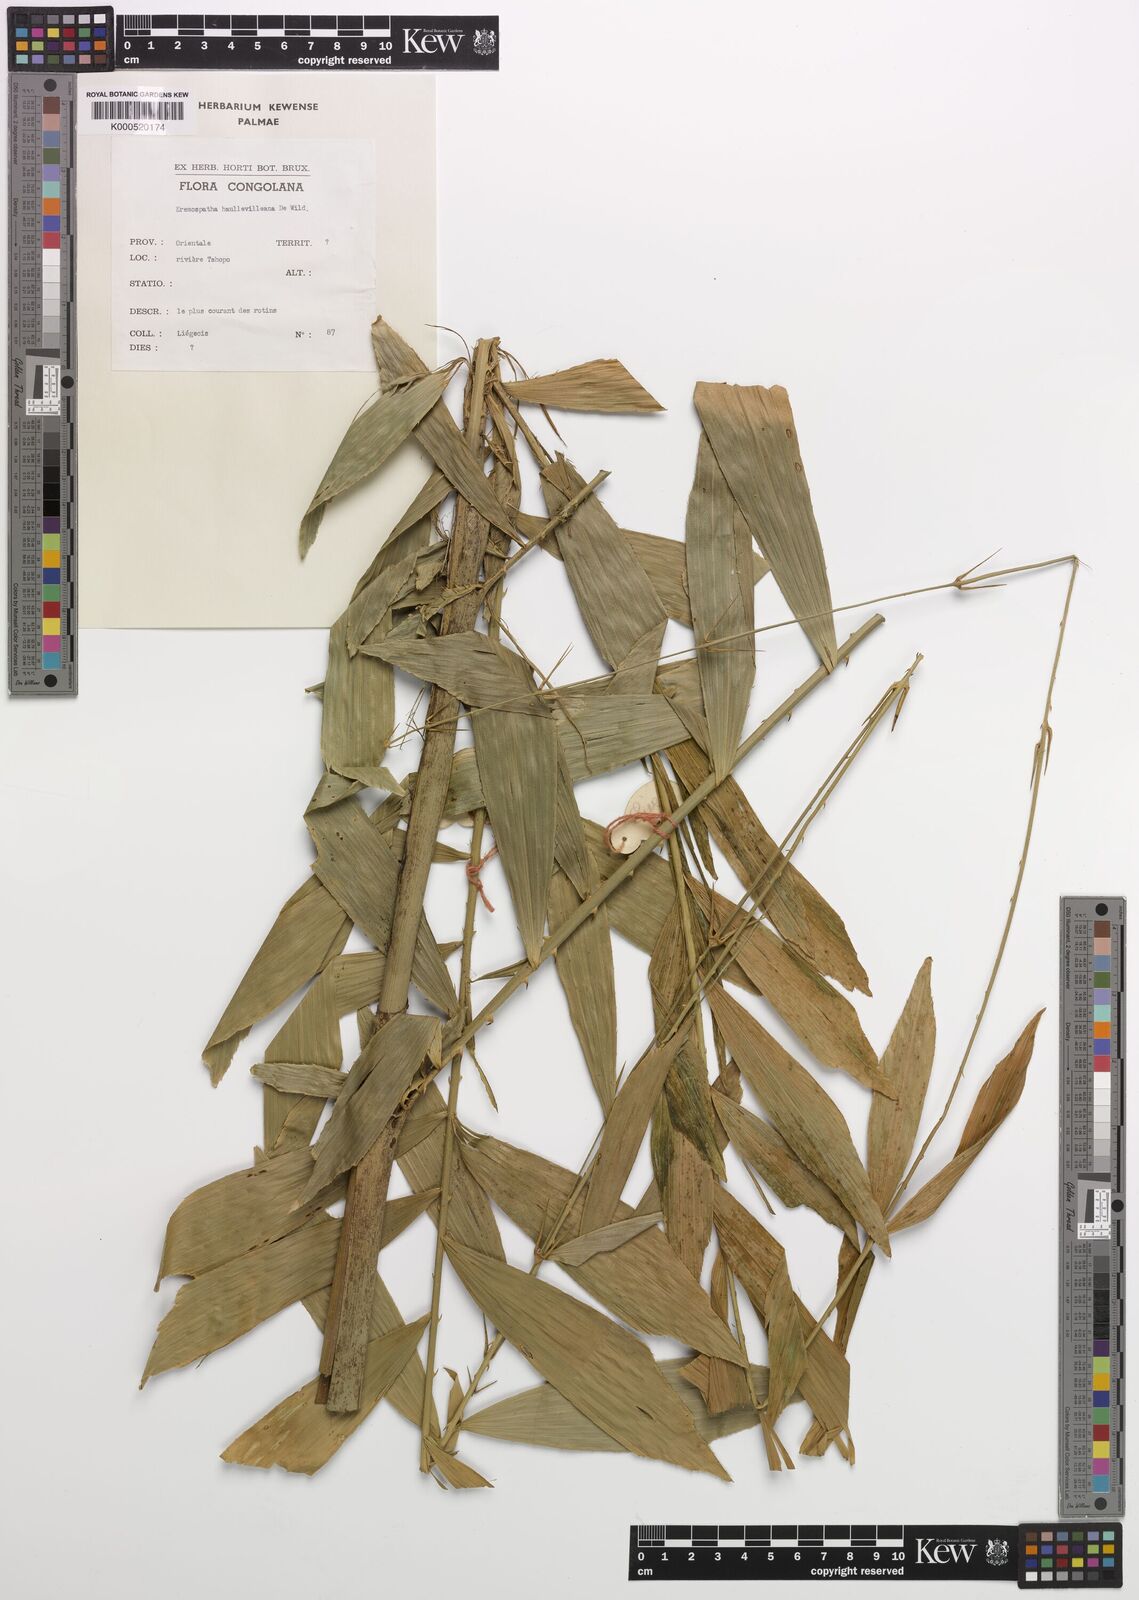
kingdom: Plantae
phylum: Tracheophyta
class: Liliopsida
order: Arecales
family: Arecaceae
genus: Eremospatha
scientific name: Eremospatha haullevilleana
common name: Rattan
